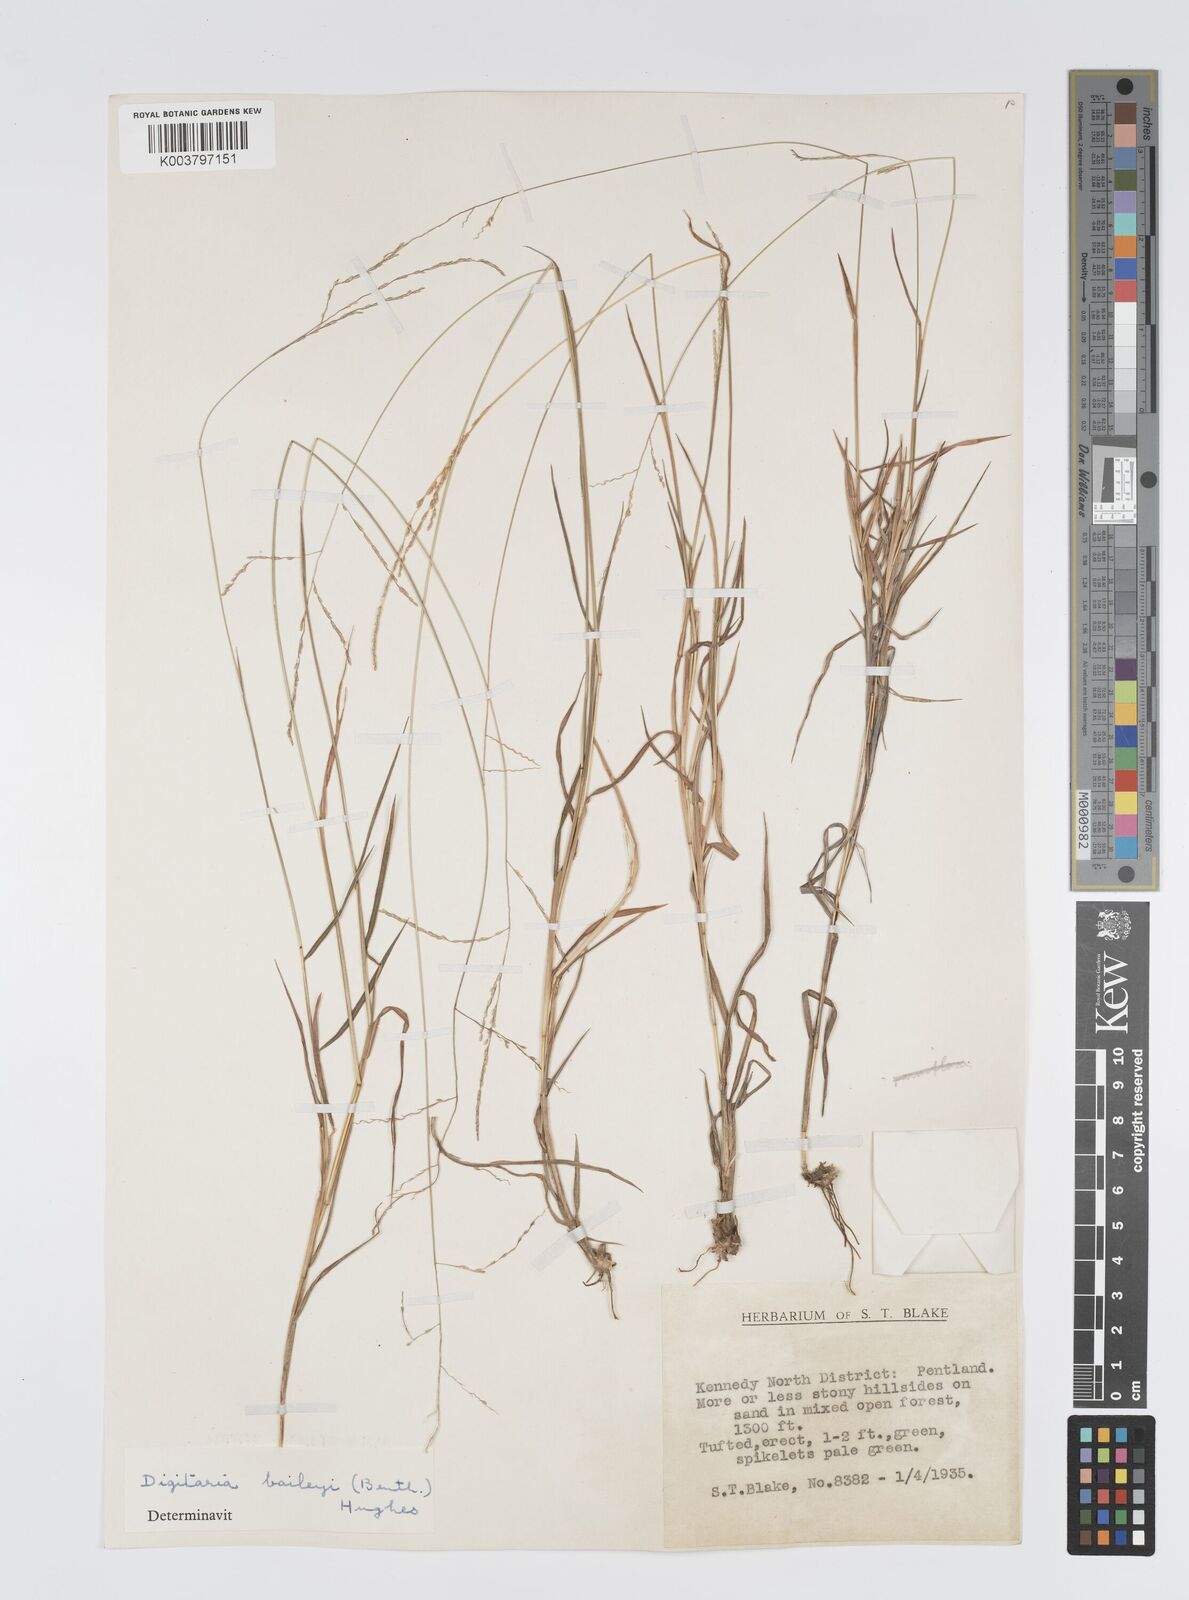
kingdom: Plantae
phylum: Tracheophyta
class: Liliopsida
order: Poales
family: Poaceae
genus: Digitaria
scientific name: Digitaria spec
